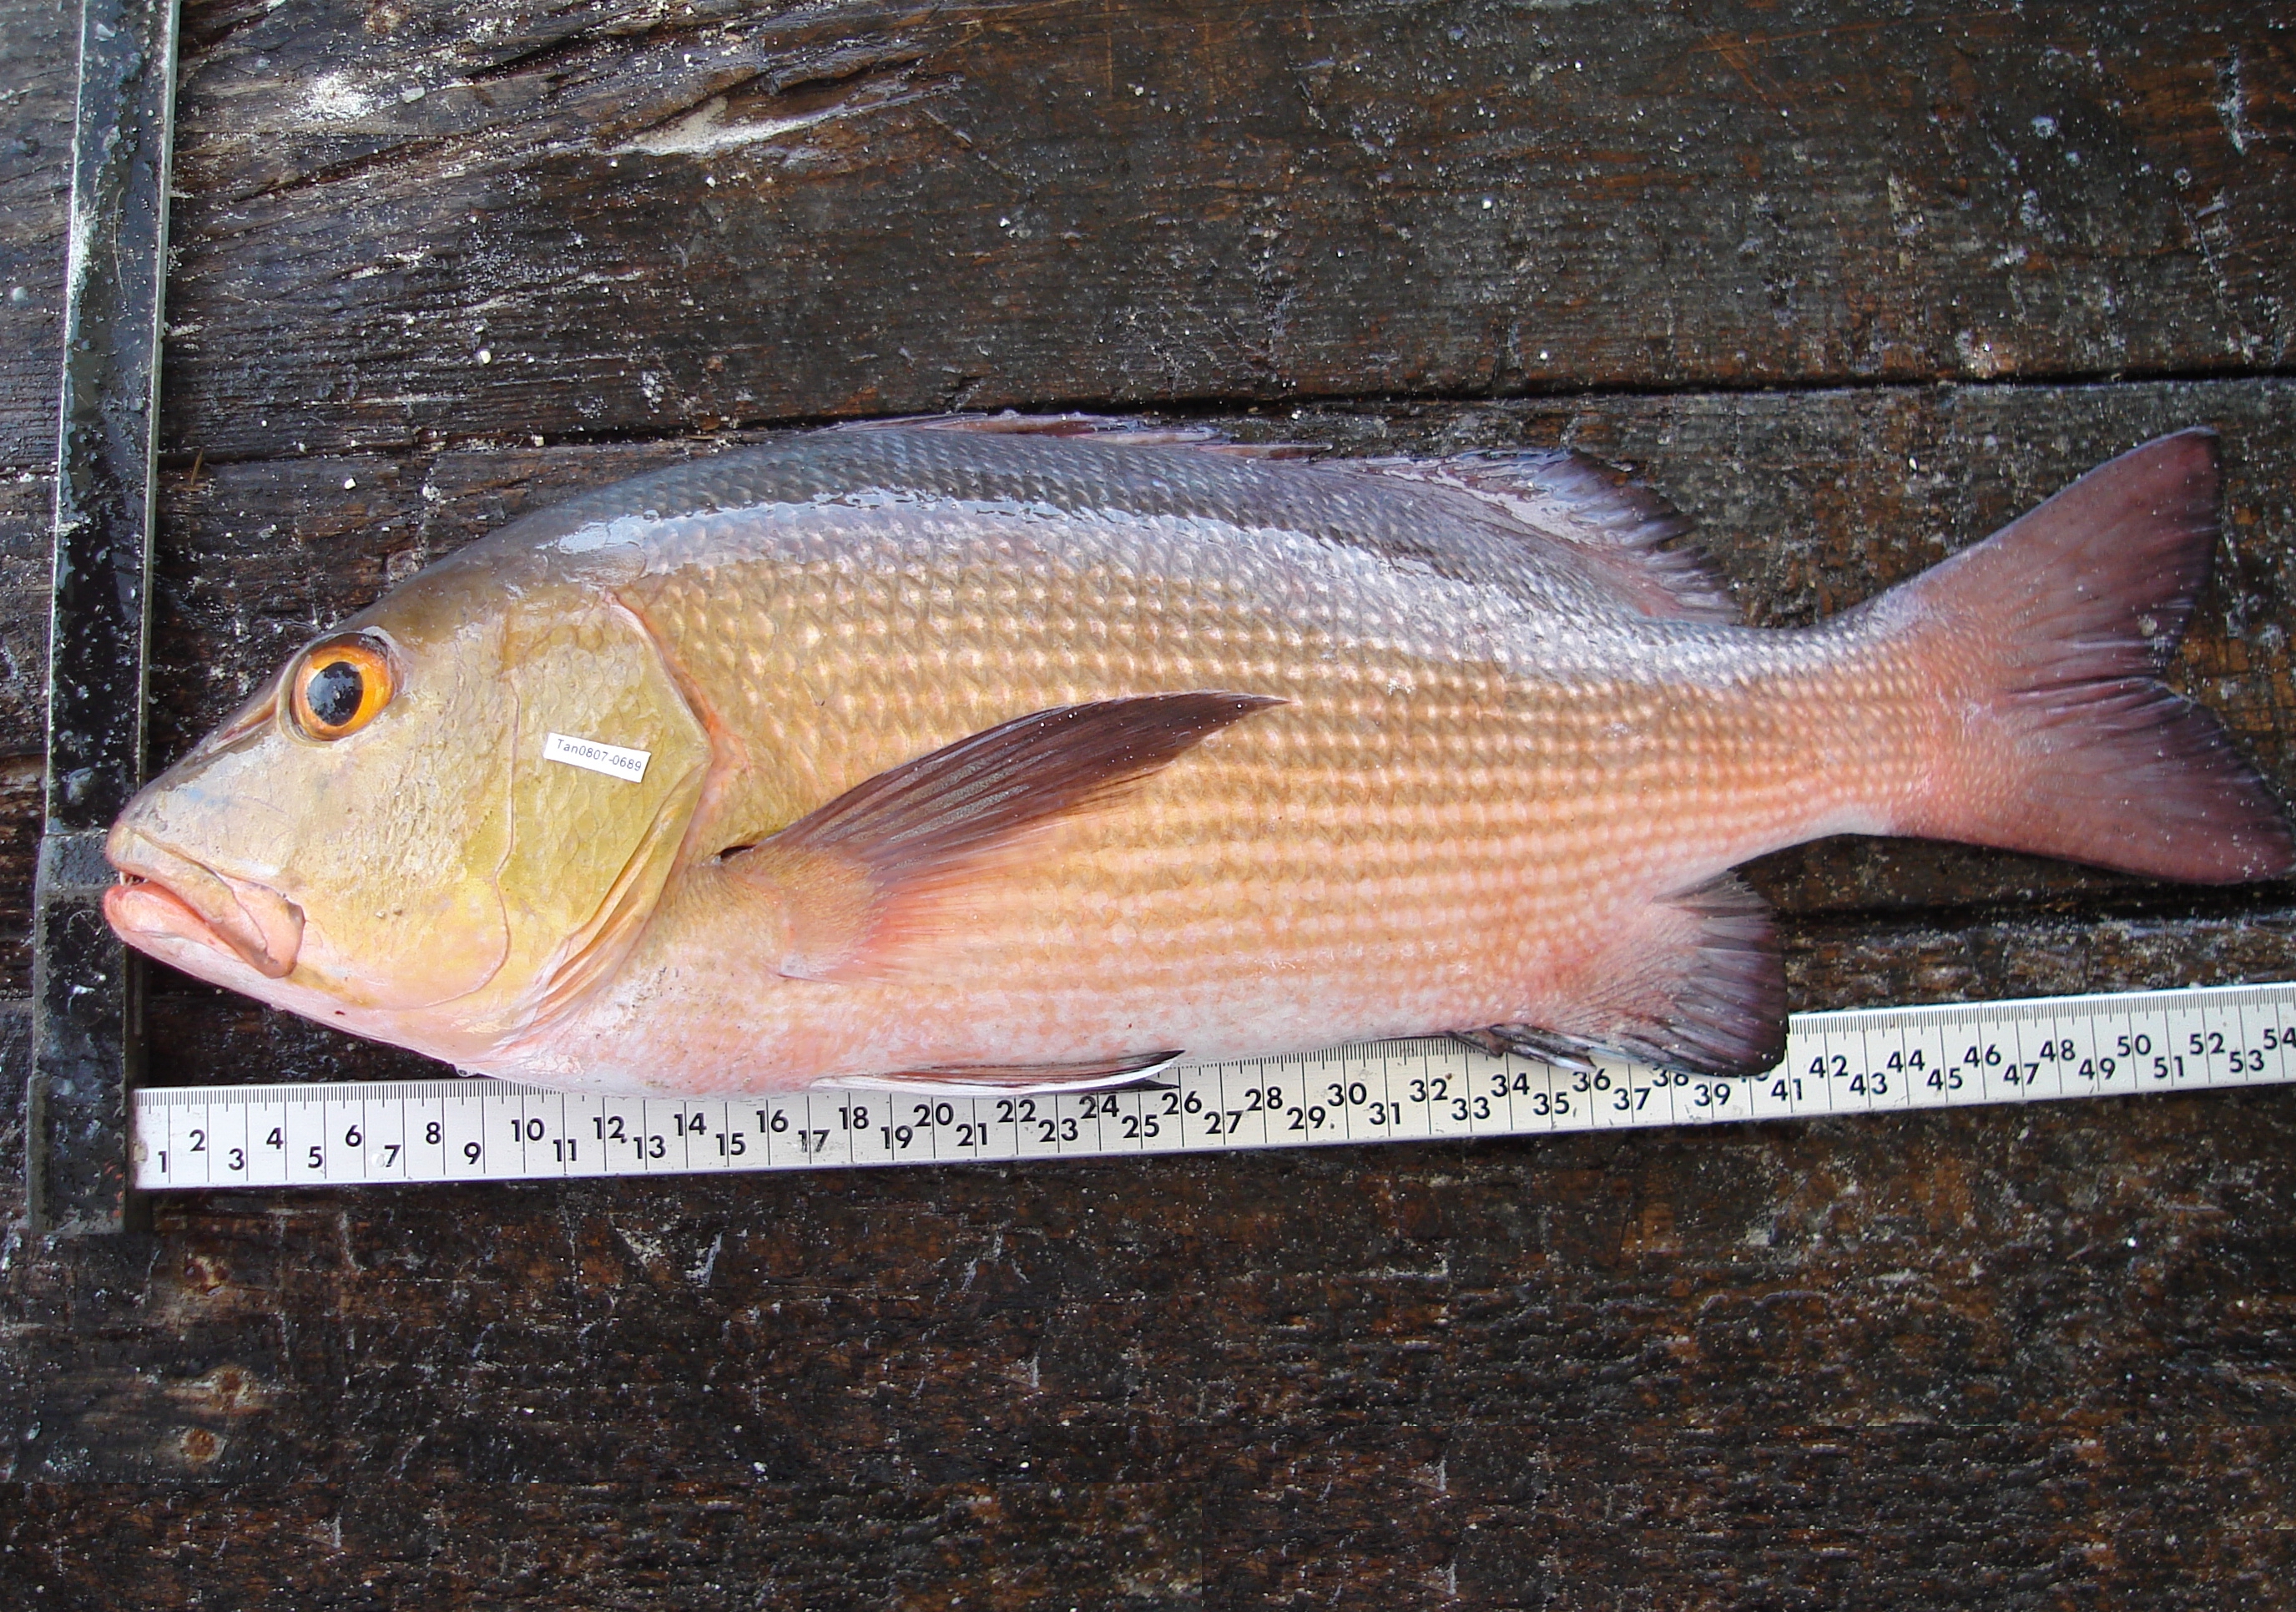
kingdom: Animalia
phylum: Chordata
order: Perciformes
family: Lutjanidae
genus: Lutjanus
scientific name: Lutjanus bohar
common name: Red bass
